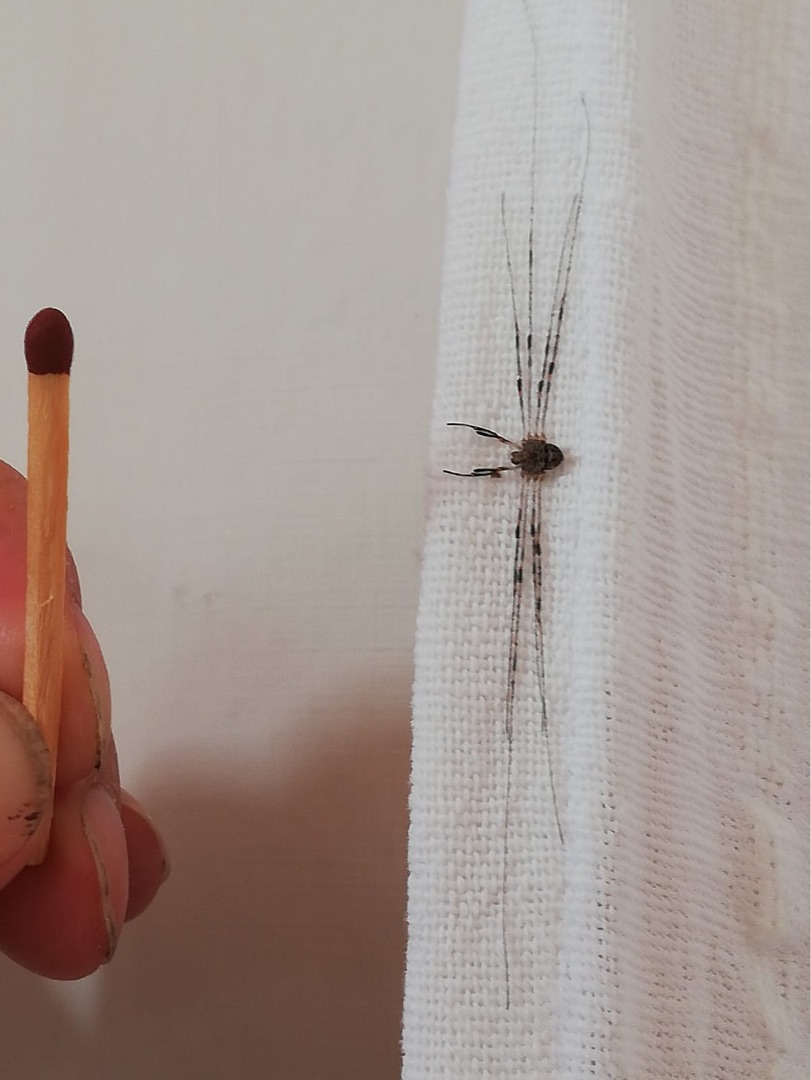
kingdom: Animalia
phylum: Arthropoda
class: Arachnida
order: Opiliones
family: Phalangiidae
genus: Dicranopalpus
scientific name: Dicranopalpus ramosus
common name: Gaffelmejer
